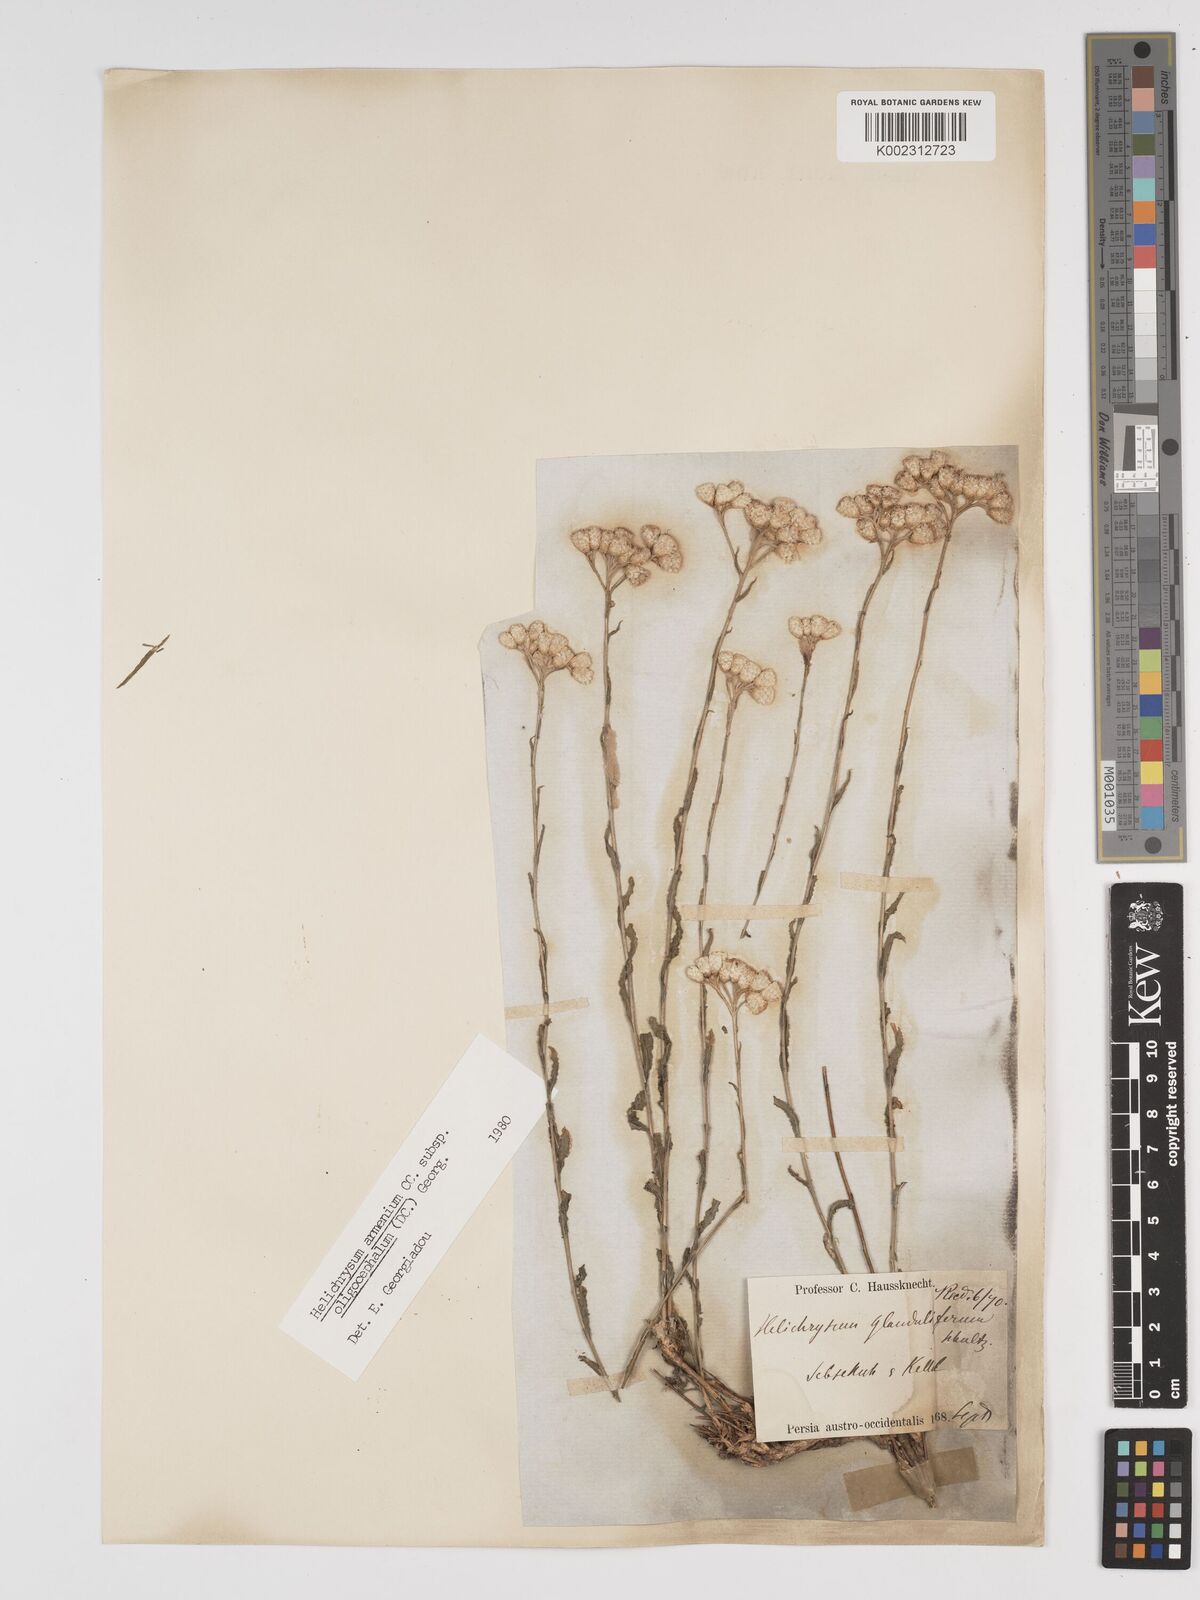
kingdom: Plantae
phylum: Tracheophyta
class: Magnoliopsida
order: Asterales
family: Asteraceae
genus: Helichrysum
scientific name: Helichrysum armenium
